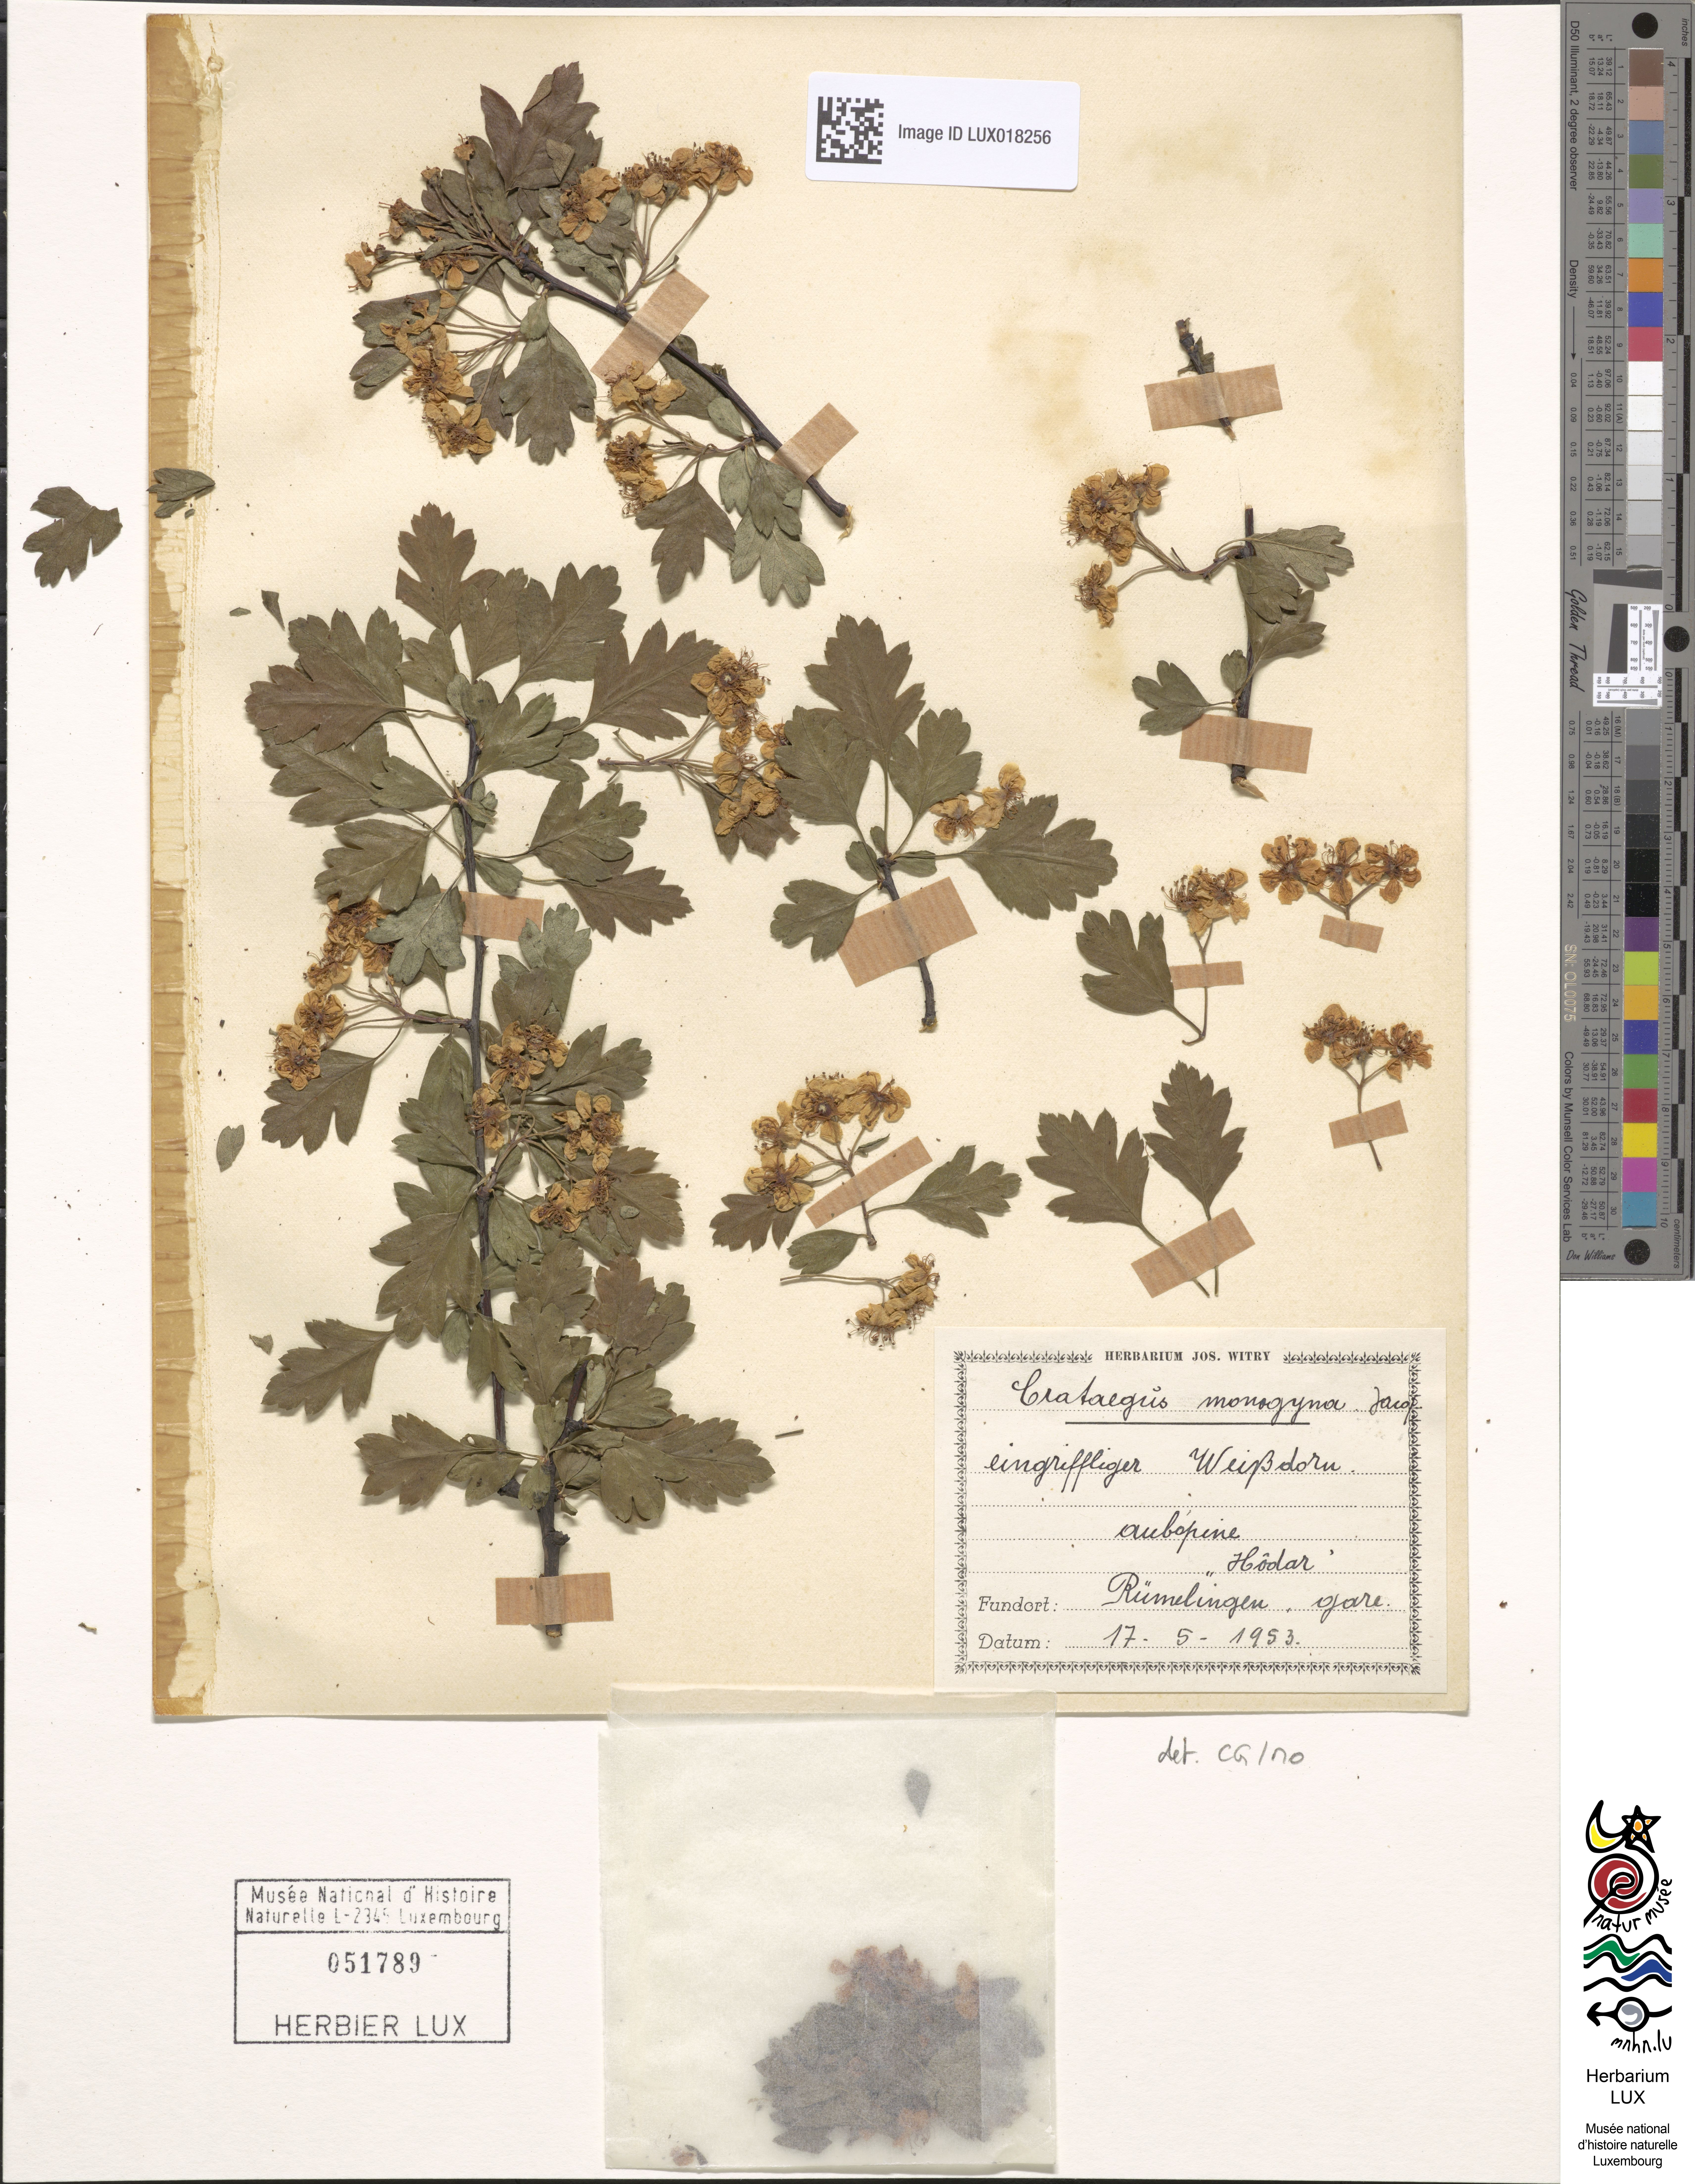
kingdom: Plantae
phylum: Tracheophyta
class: Magnoliopsida
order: Rosales
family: Rosaceae
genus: Crataegus
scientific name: Crataegus monogyna
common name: Hawthorn
